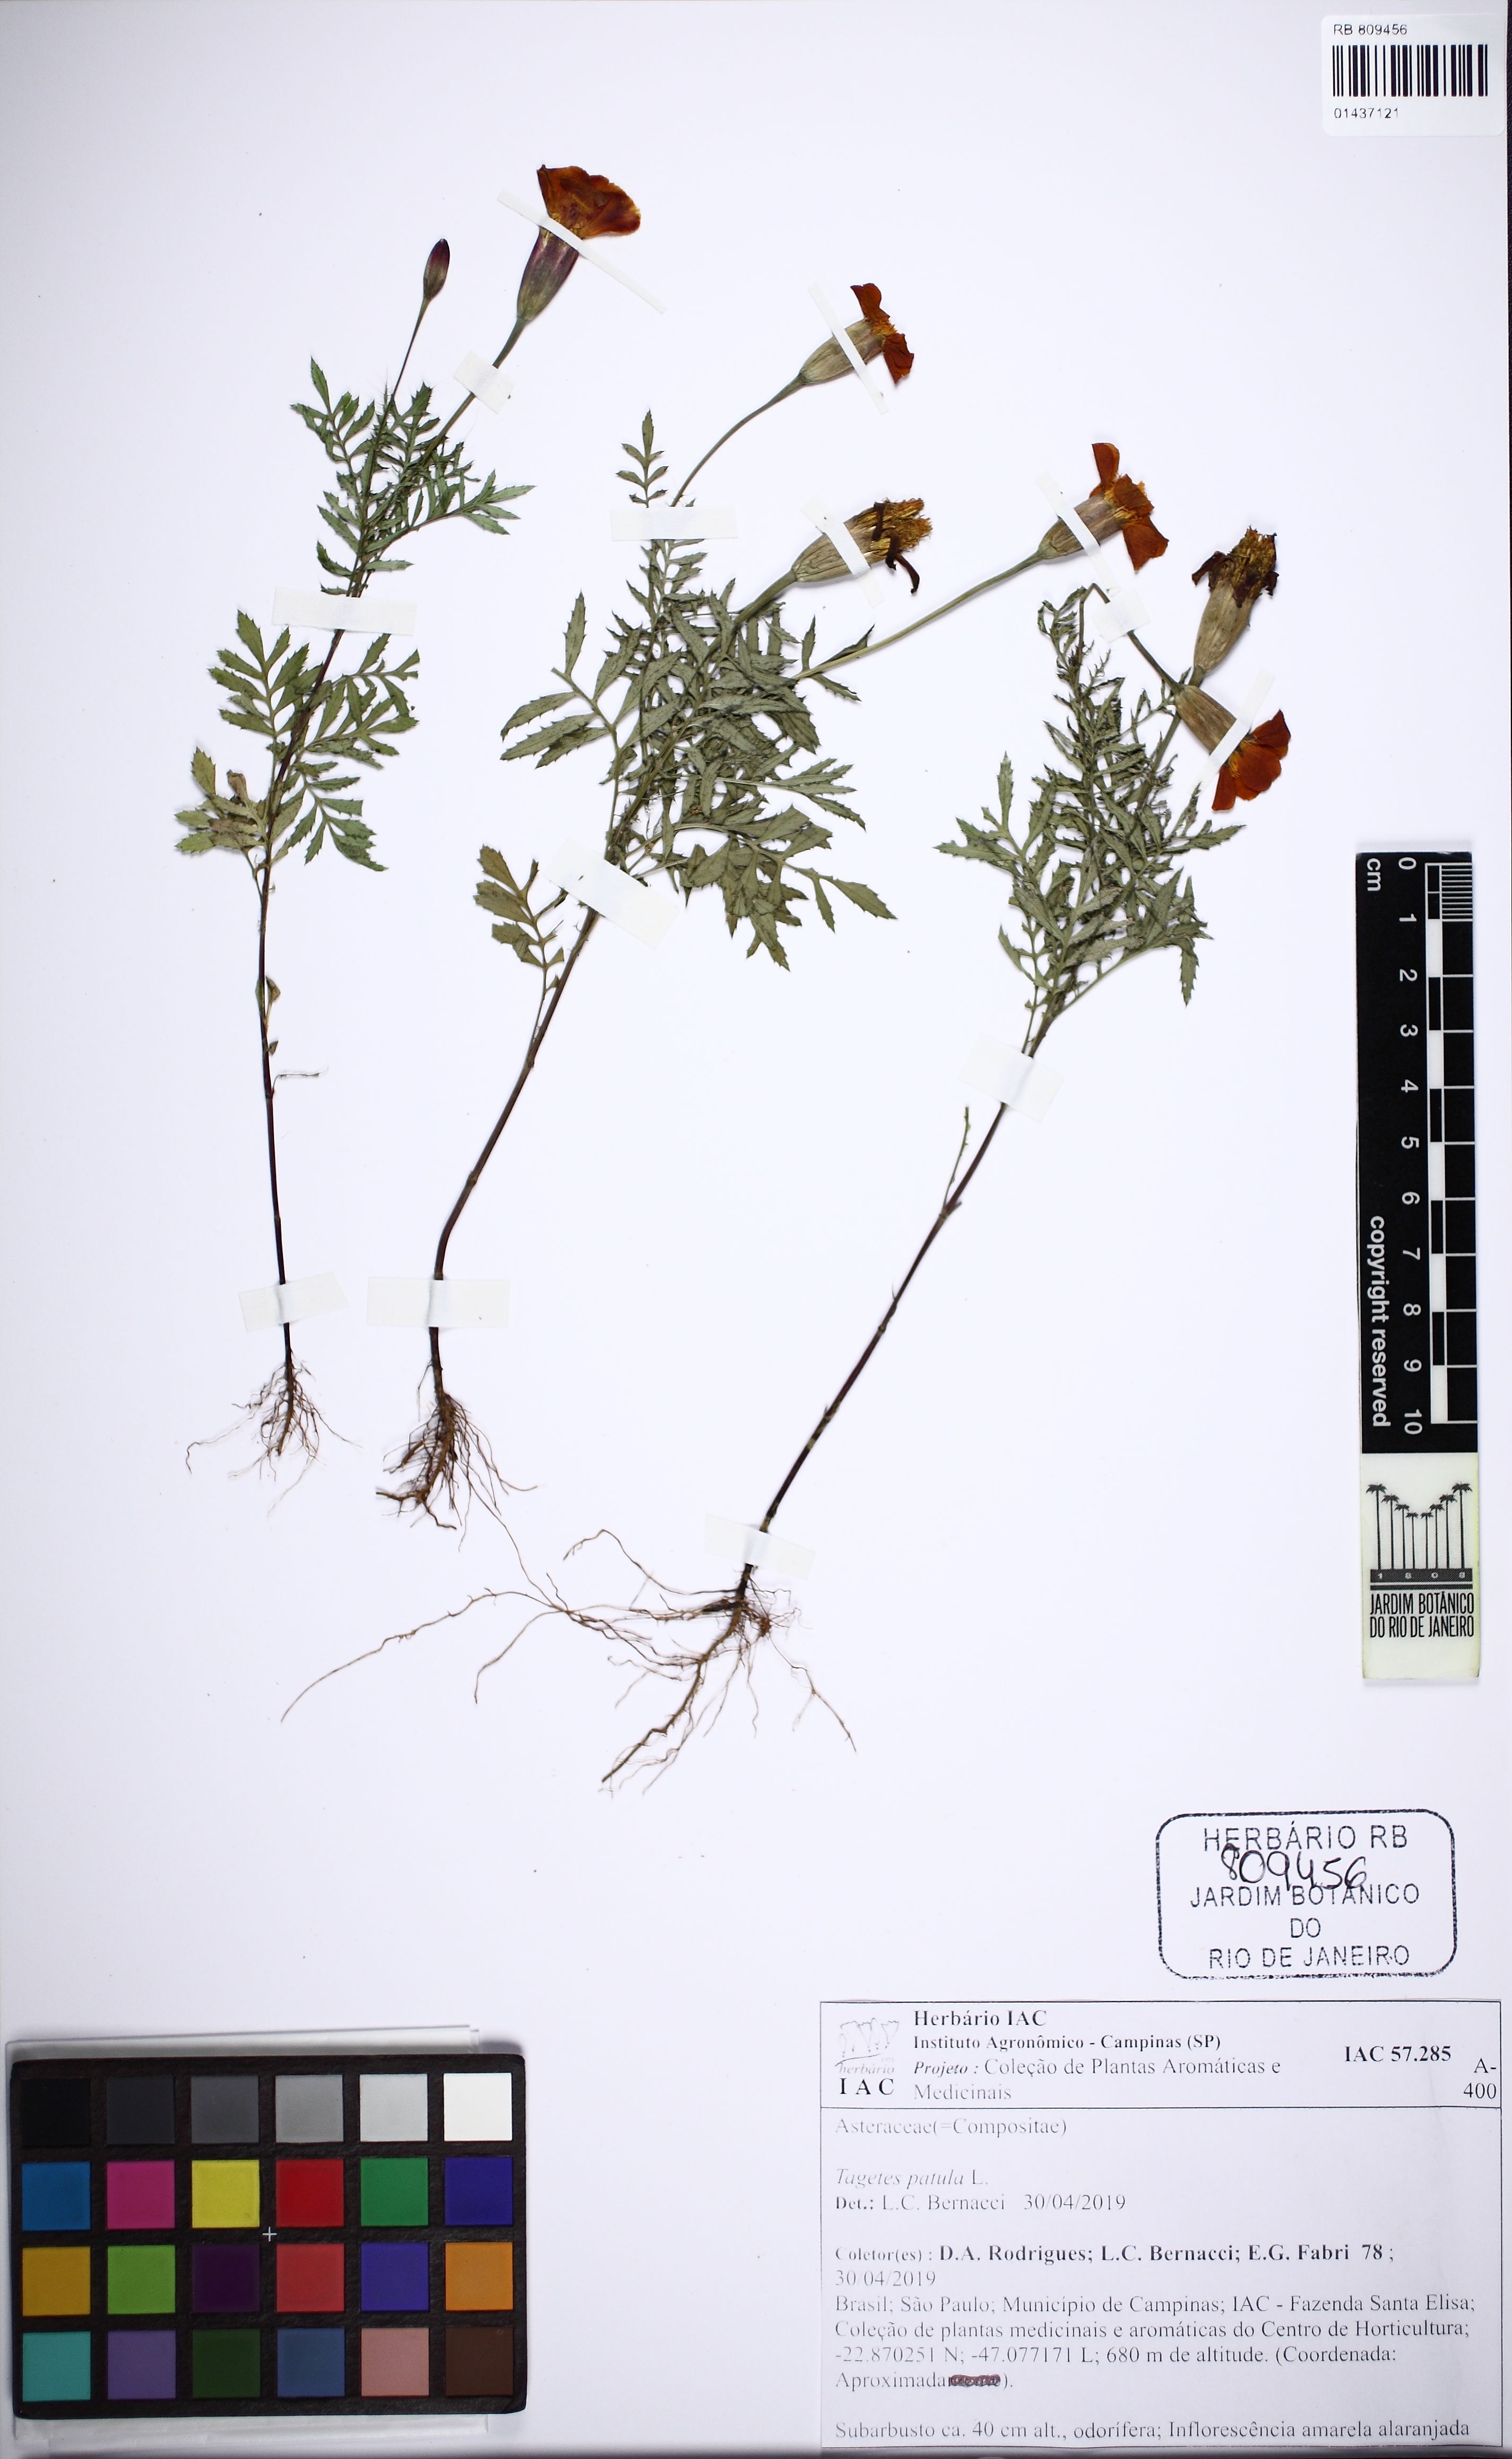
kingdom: Plantae
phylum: Tracheophyta
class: Magnoliopsida
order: Asterales
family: Asteraceae
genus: Tagetes
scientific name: Tagetes erecta
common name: African marigold
